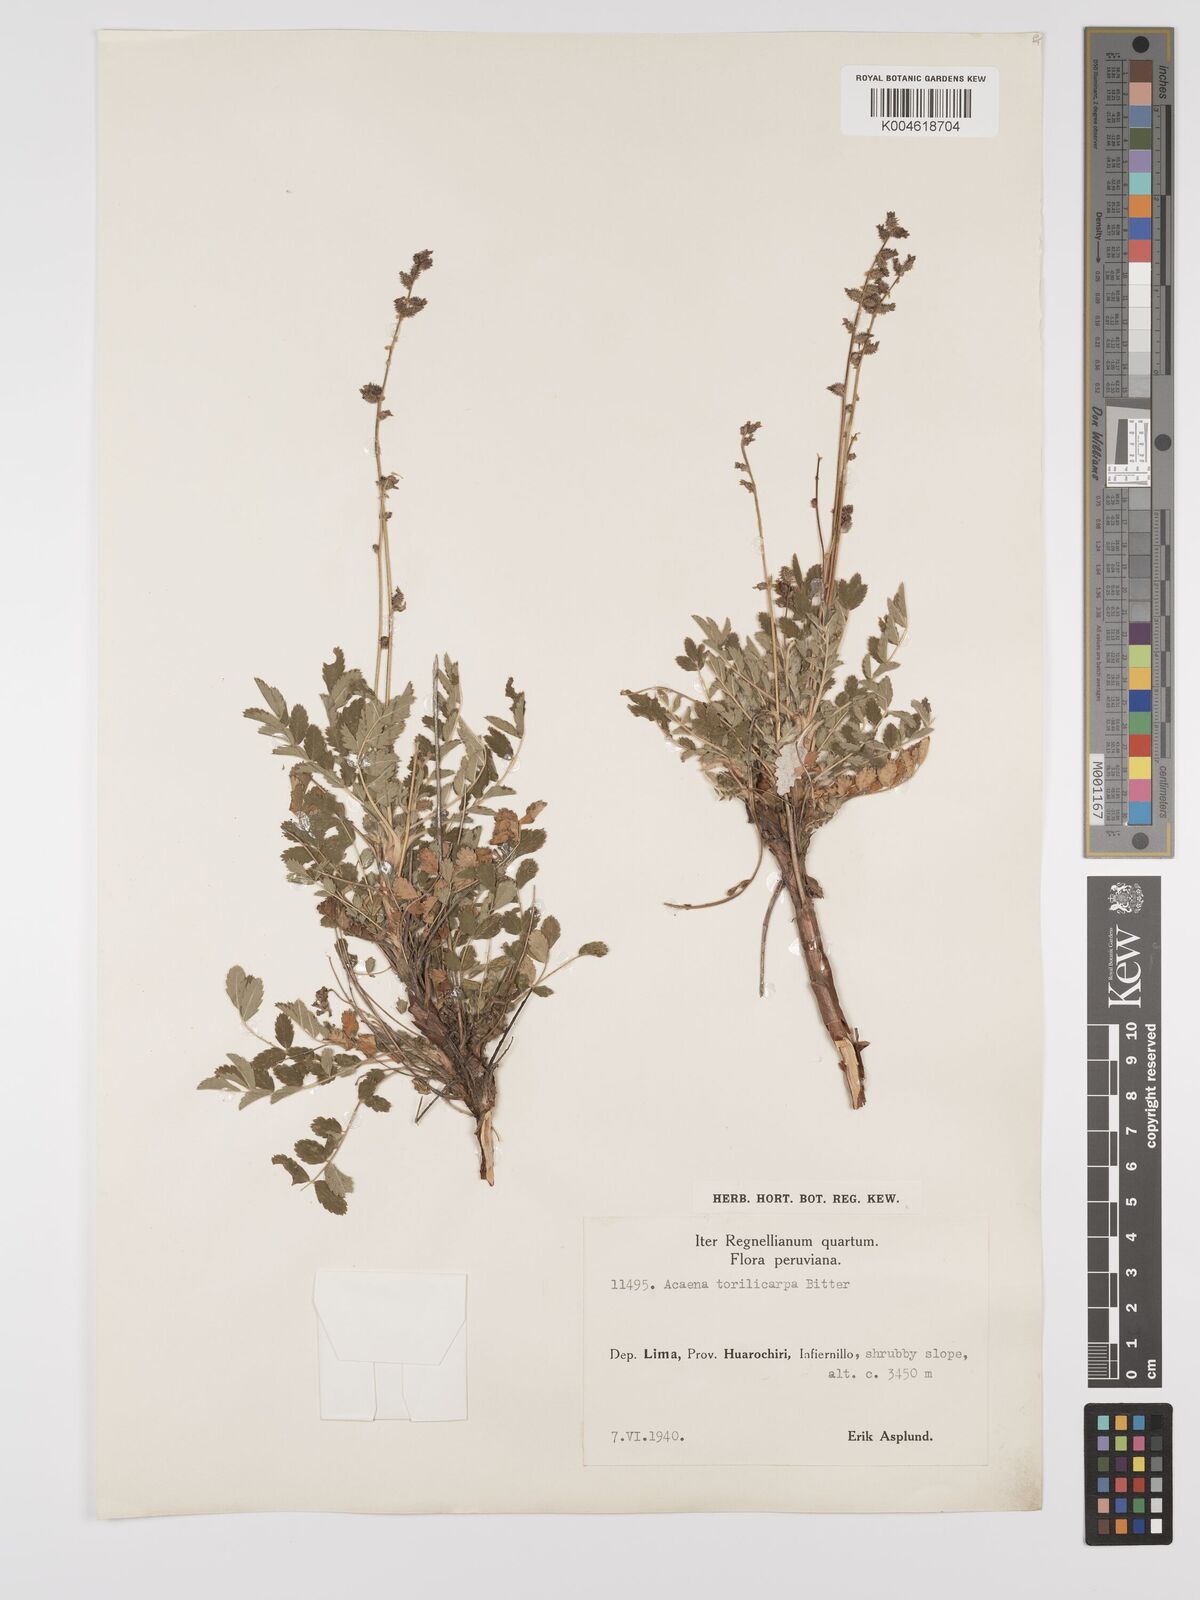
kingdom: Plantae
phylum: Tracheophyta
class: Magnoliopsida
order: Rosales
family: Rosaceae
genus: Acaena
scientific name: Acaena torilicarpa
